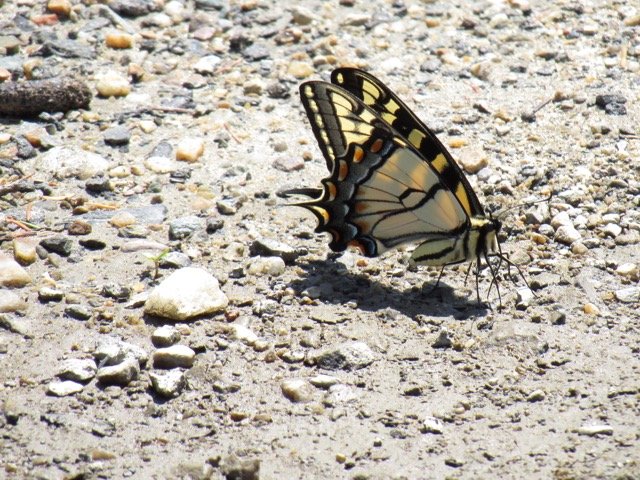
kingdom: Animalia
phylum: Arthropoda
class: Insecta
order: Lepidoptera
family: Papilionidae
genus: Pterourus
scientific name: Pterourus
